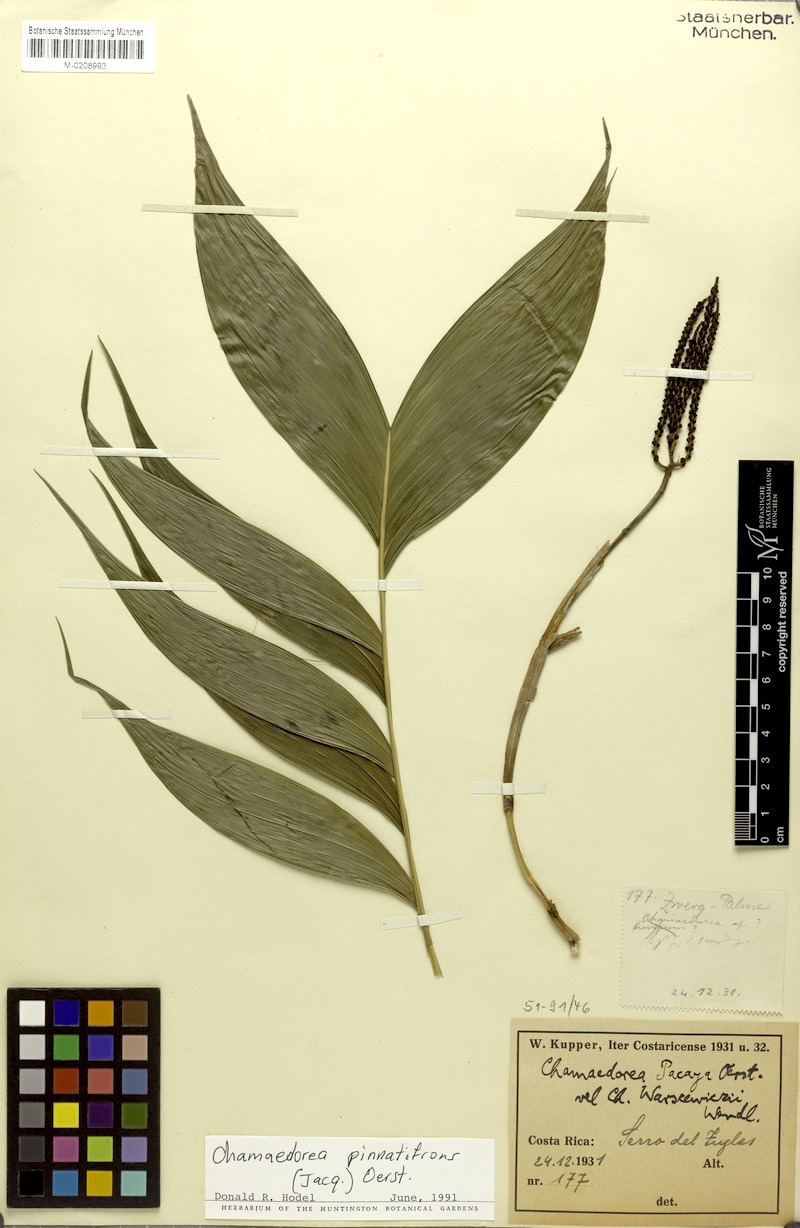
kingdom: Plantae
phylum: Tracheophyta
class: Liliopsida
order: Arecales
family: Arecaceae
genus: Chamaedorea
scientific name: Chamaedorea pinnatifrons
